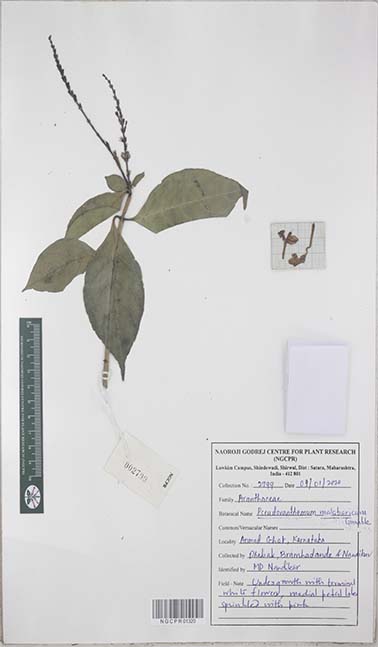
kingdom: Plantae
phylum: Tracheophyta
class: Magnoliopsida
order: Lamiales
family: Acanthaceae
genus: Pseuderanthemum
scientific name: Pseuderanthemum malabaricum
